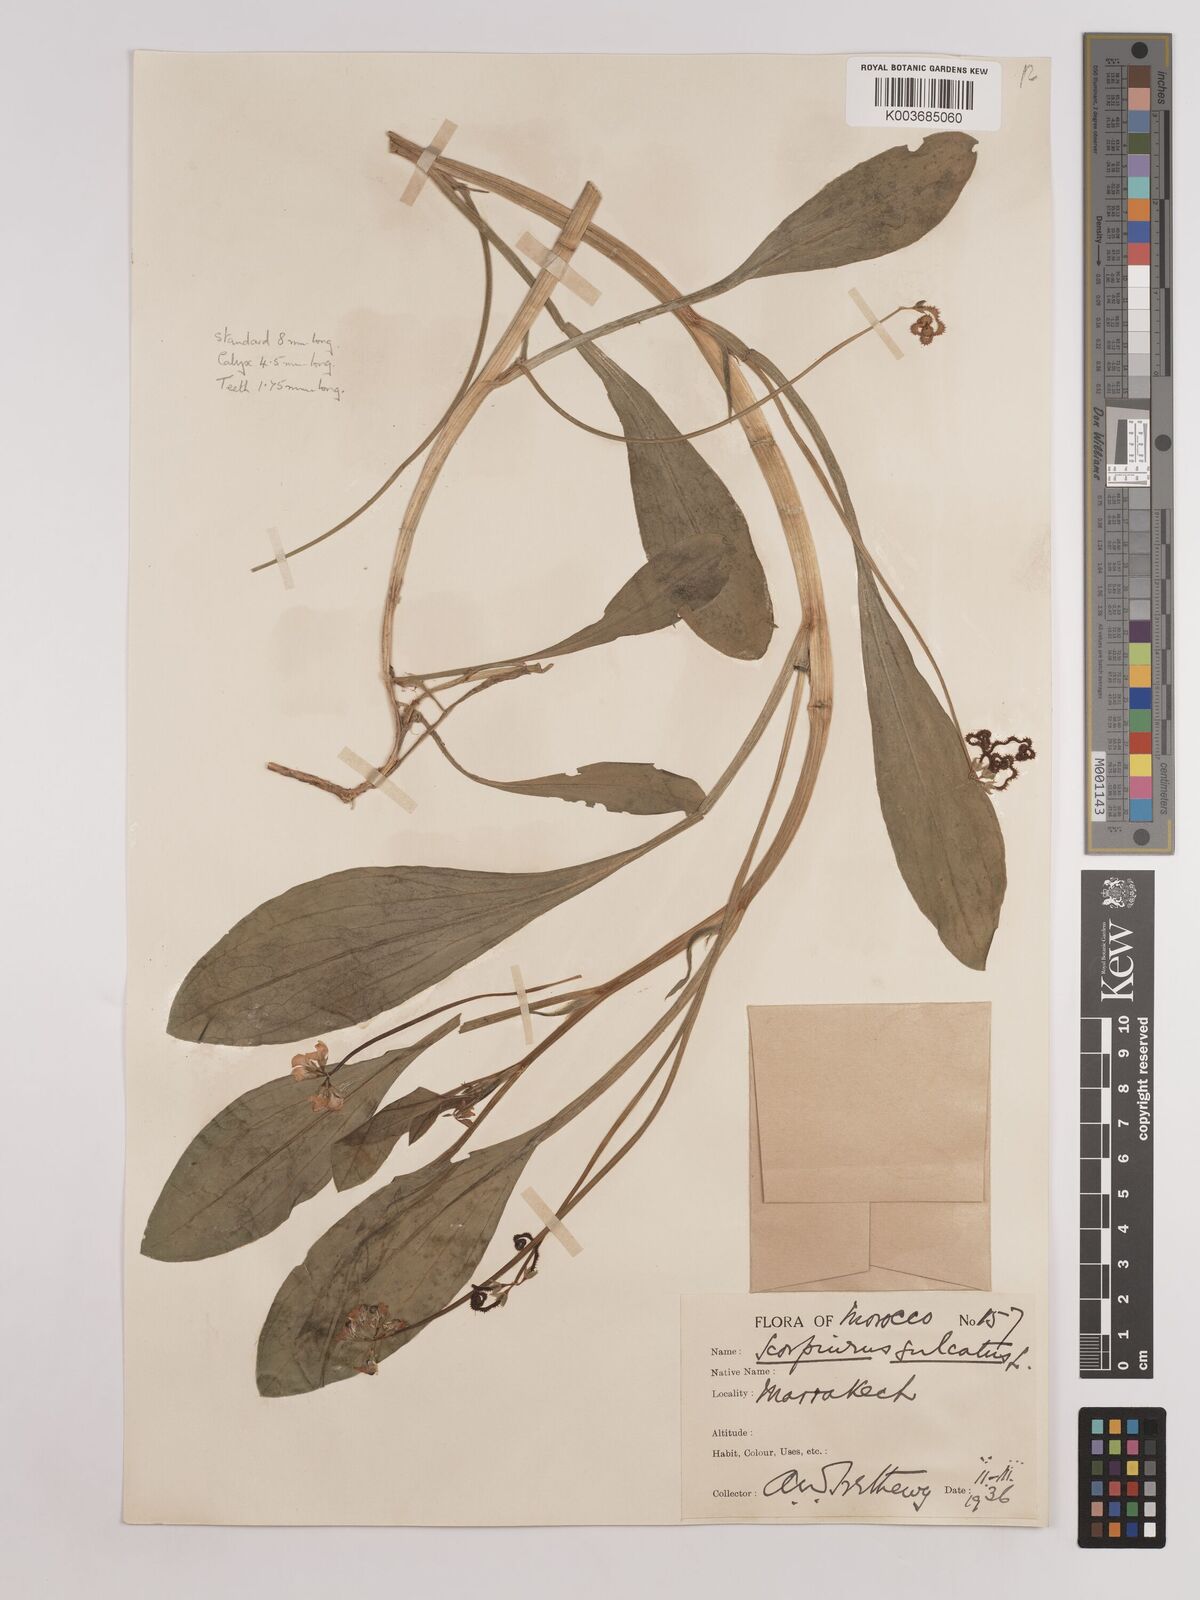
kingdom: Plantae
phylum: Tracheophyta
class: Magnoliopsida
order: Fabales
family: Fabaceae
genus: Scorpiurus
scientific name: Scorpiurus muricatus
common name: Caterpillar-plant
